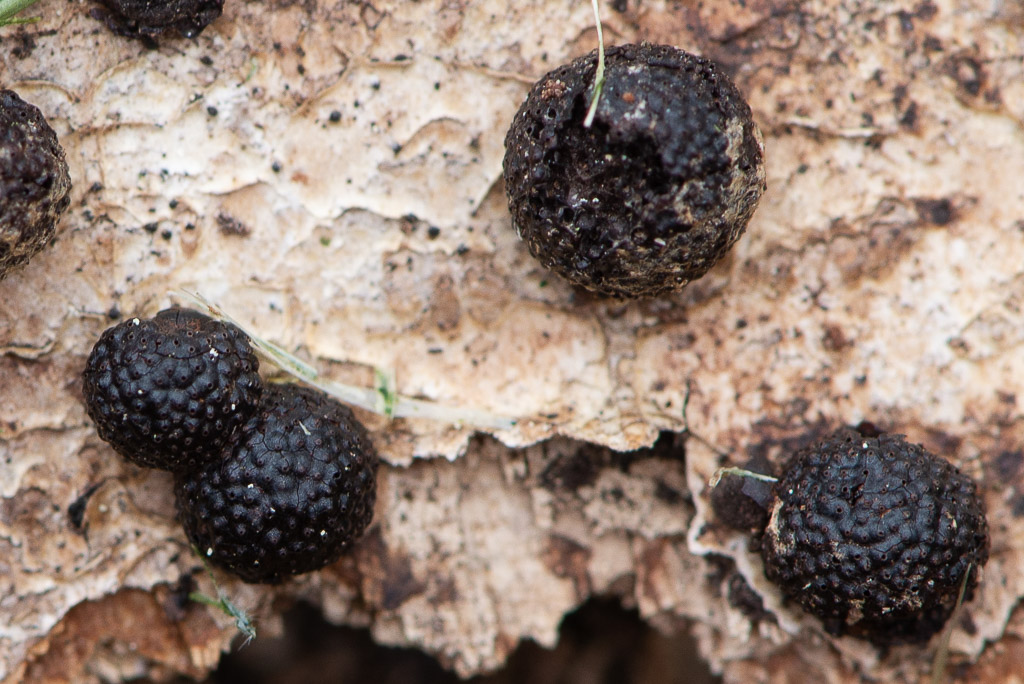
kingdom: Fungi
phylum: Ascomycota
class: Sordariomycetes
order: Xylariales
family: Hypoxylaceae
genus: Hypoxylon
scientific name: Hypoxylon
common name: kulbær
